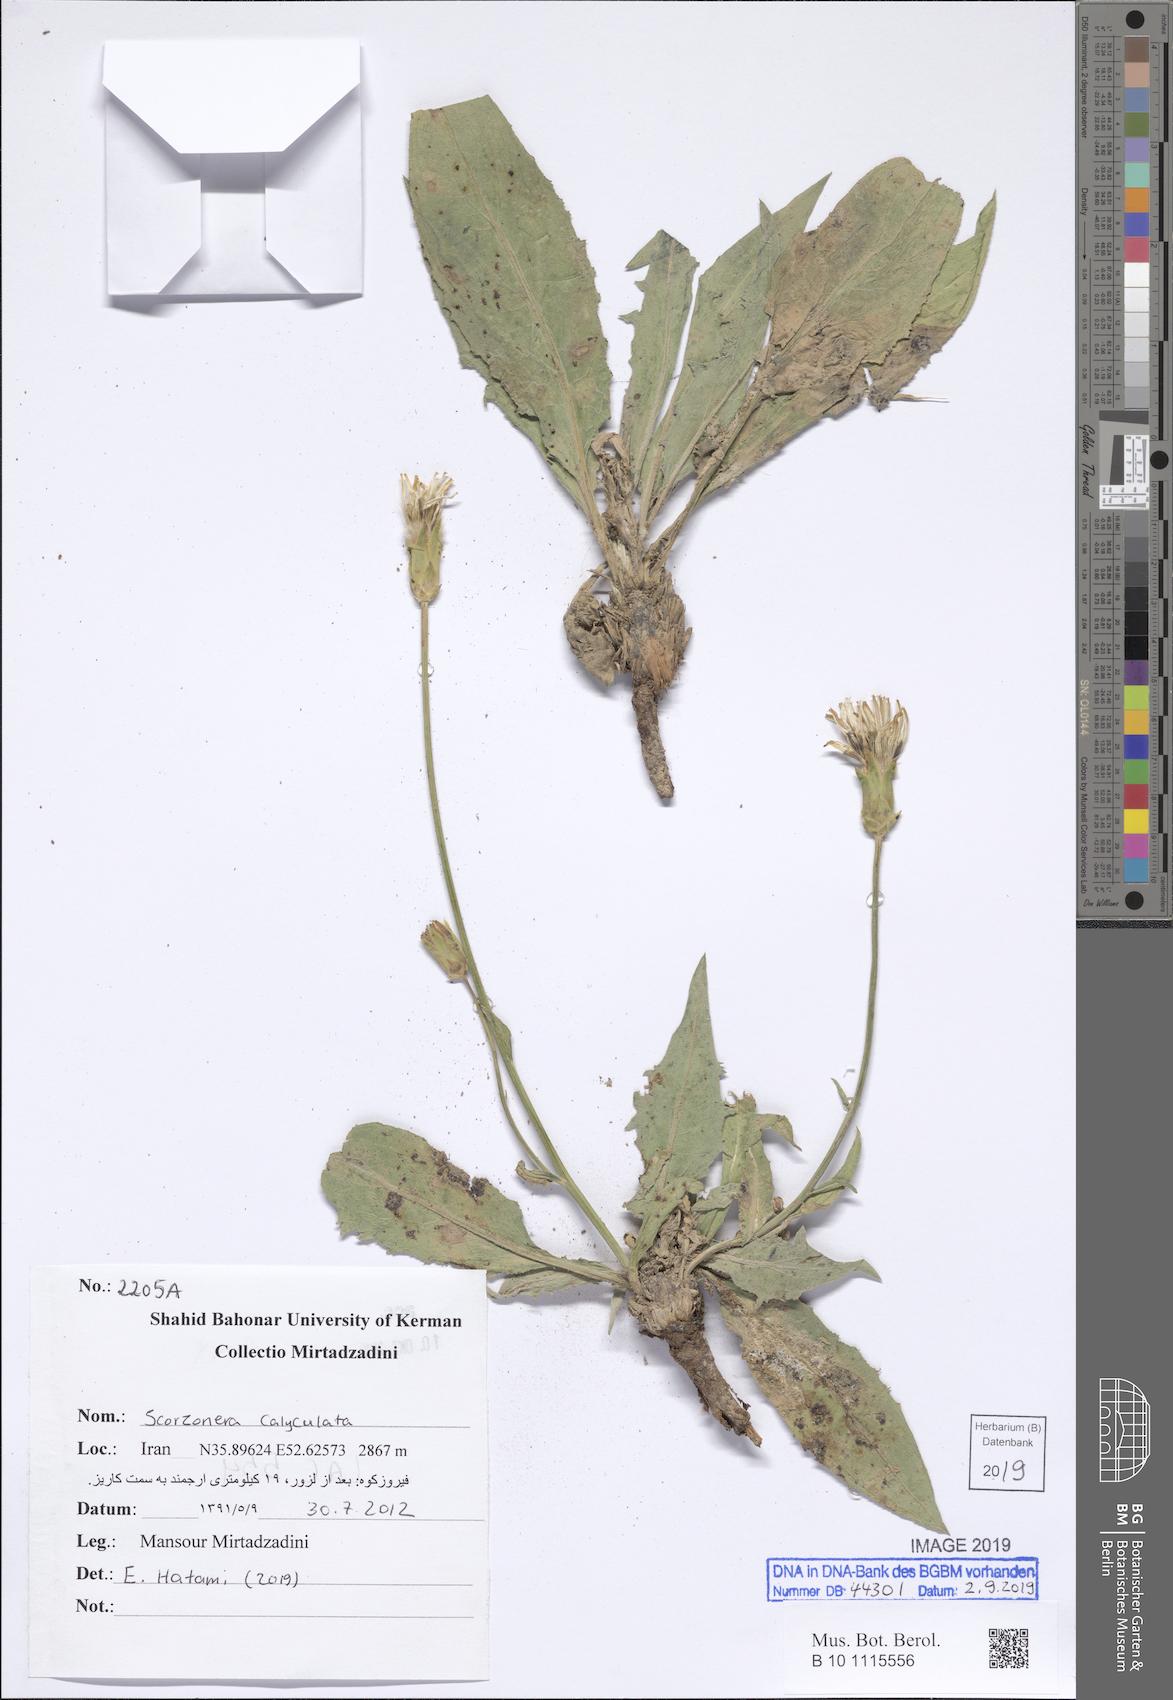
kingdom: Plantae
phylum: Tracheophyta
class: Magnoliopsida
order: Asterales
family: Asteraceae
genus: Aslia
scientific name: Aslia calyculata
